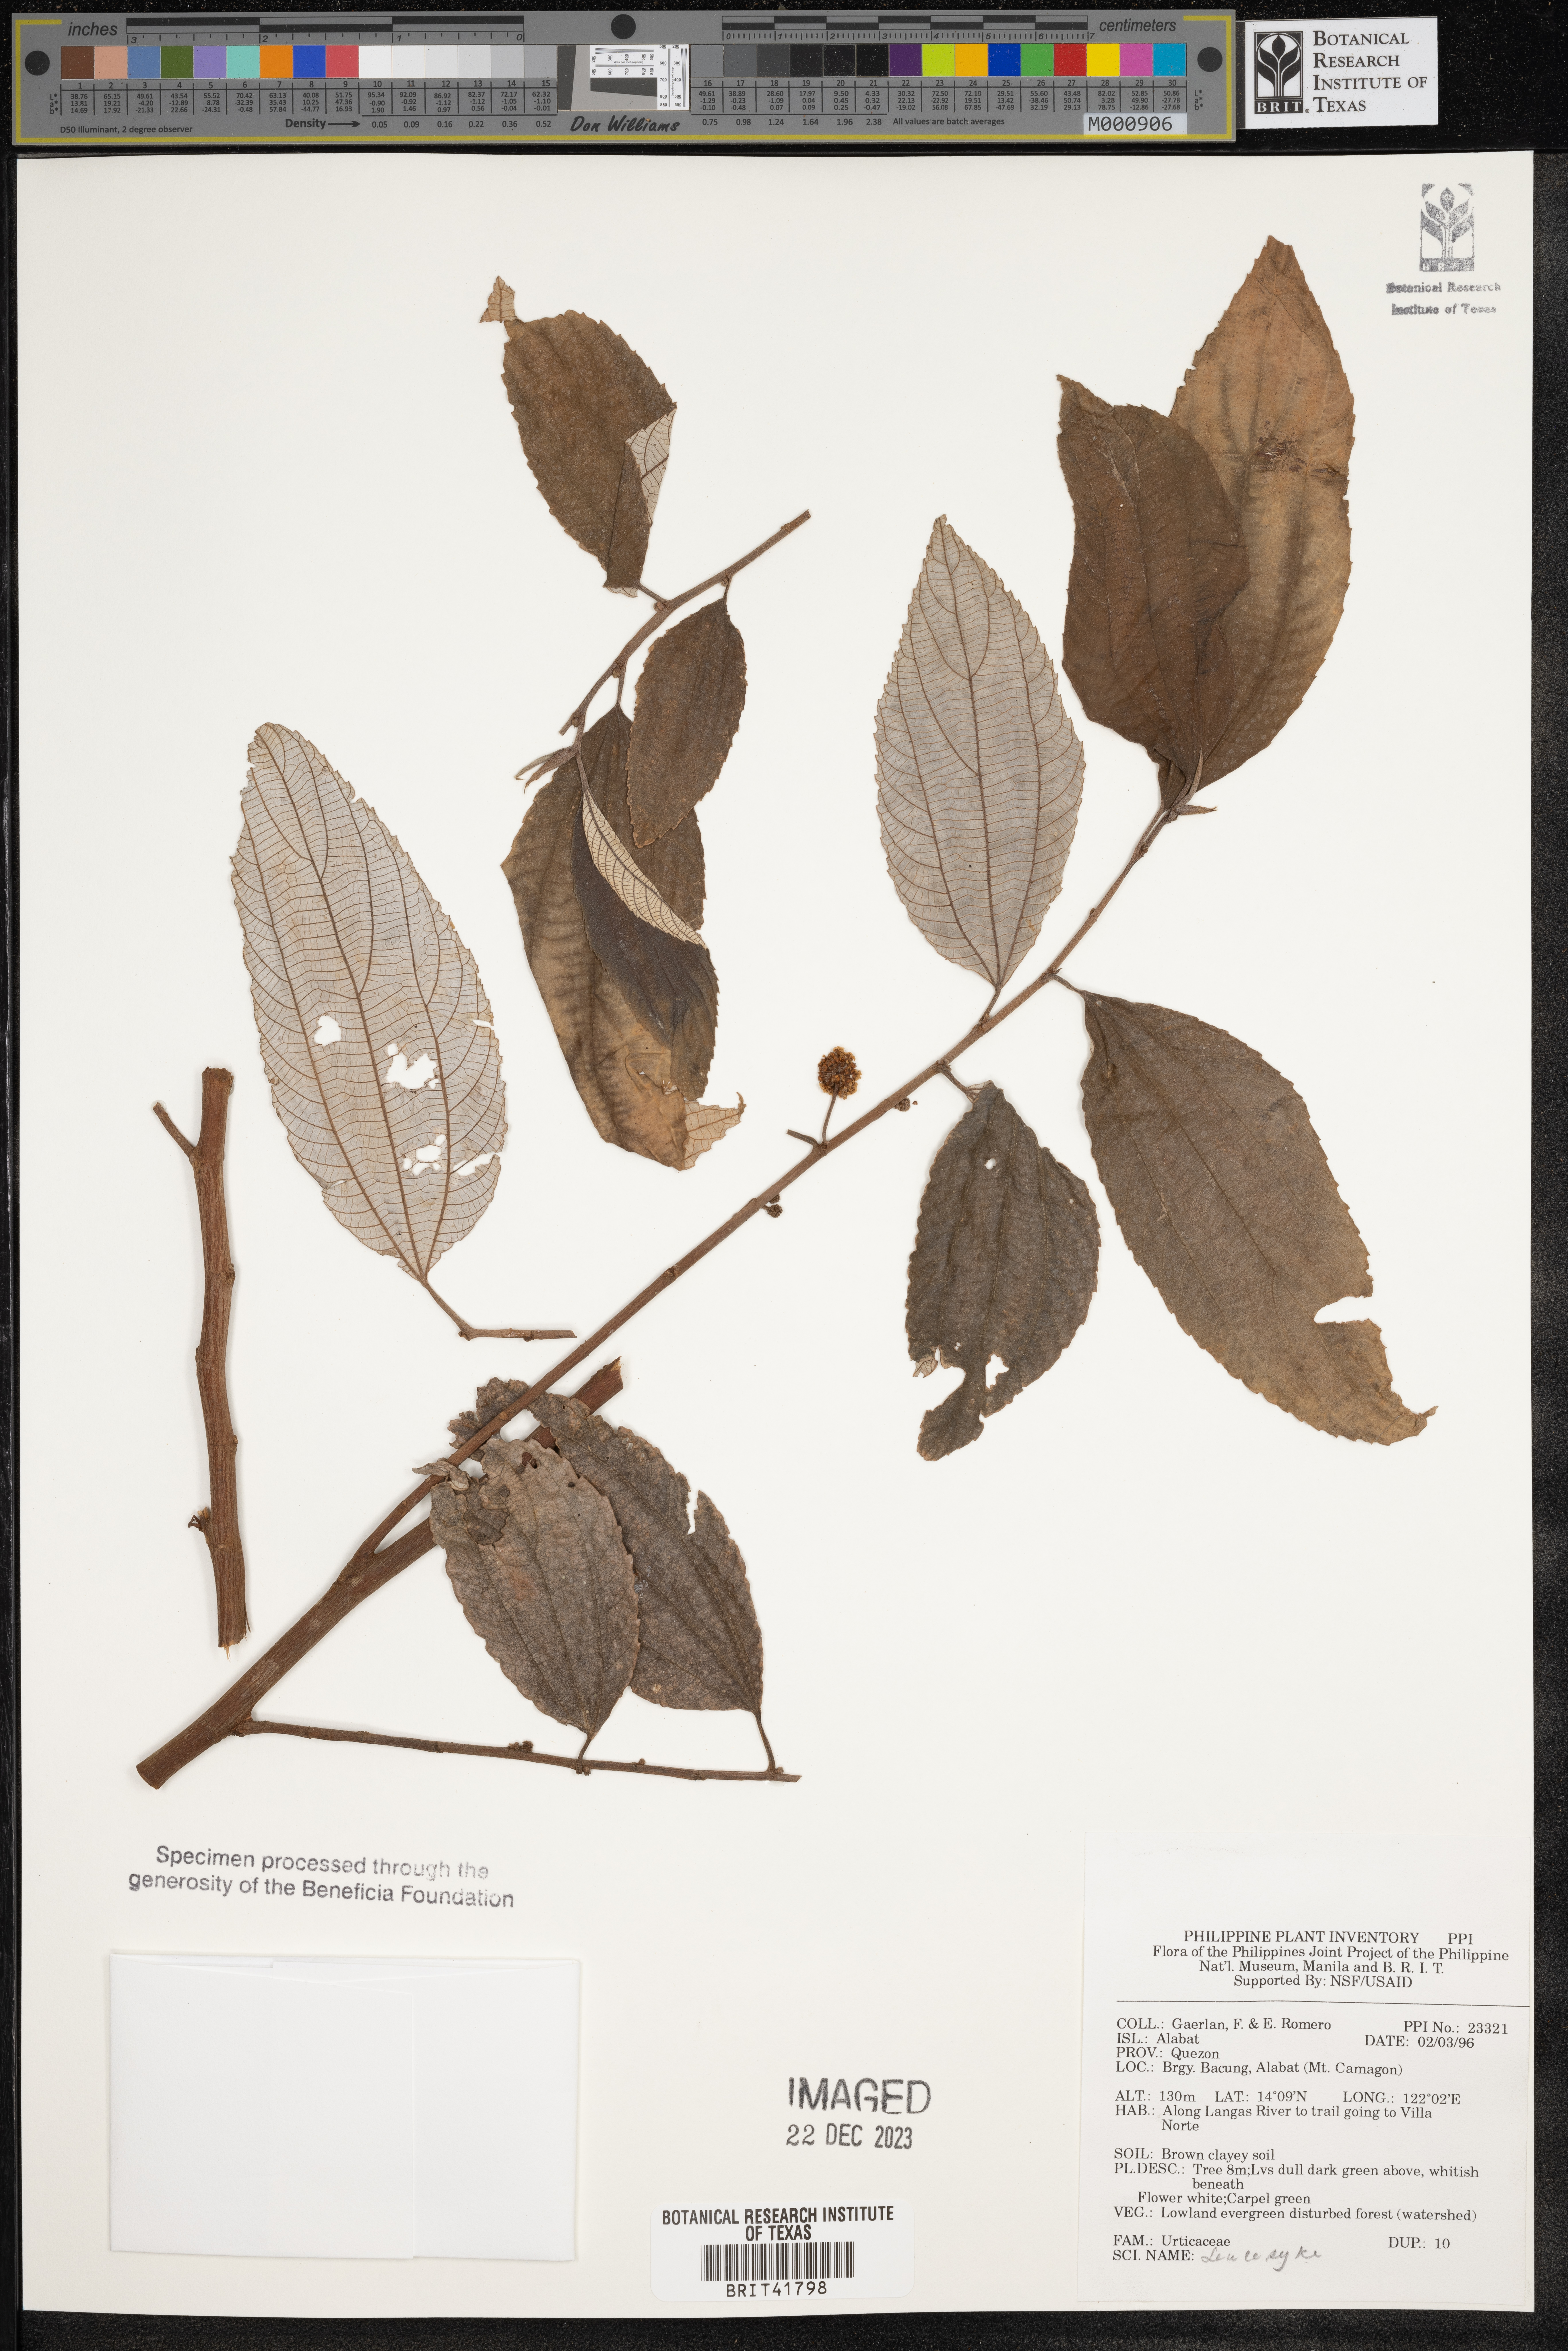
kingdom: Plantae
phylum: Tracheophyta
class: Magnoliopsida
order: Rosales
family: Urticaceae
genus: Leucosyke
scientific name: Leucosyke
